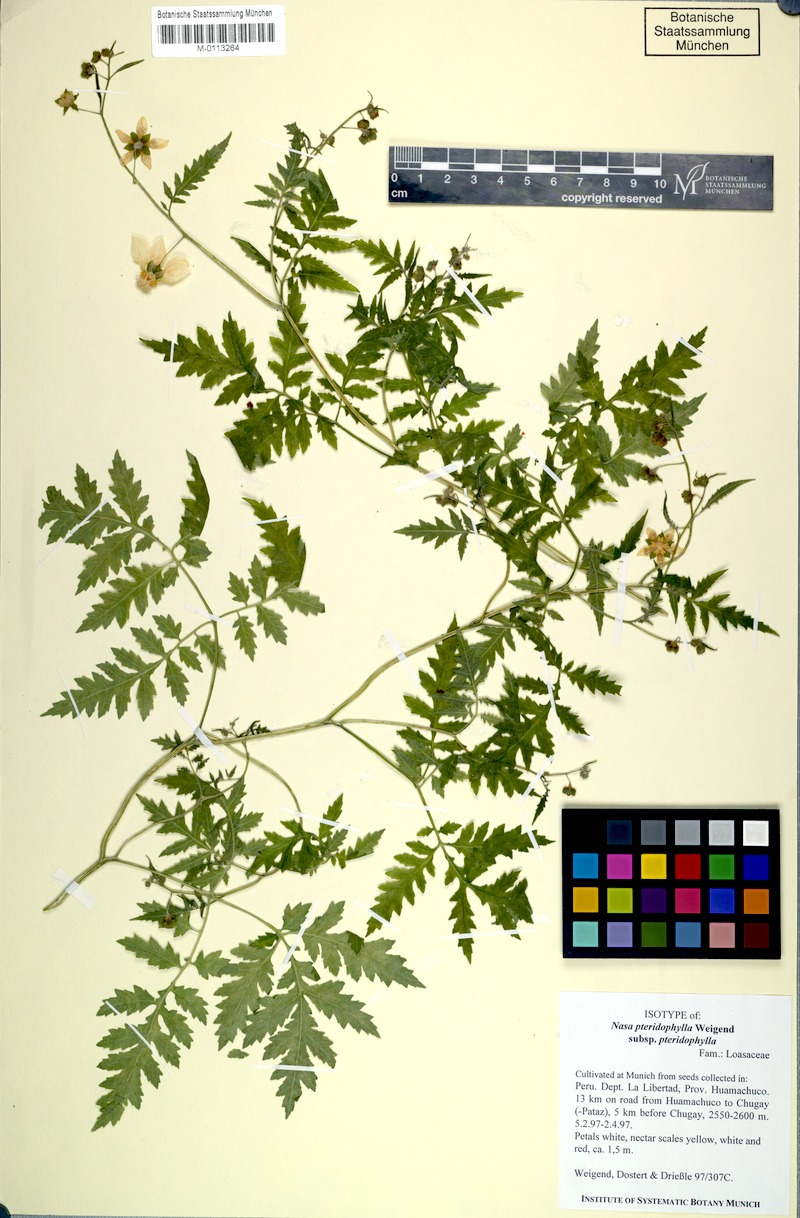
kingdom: Plantae
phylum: Tracheophyta
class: Magnoliopsida
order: Cornales
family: Loasaceae
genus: Nasa
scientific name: Nasa pteridophylla
